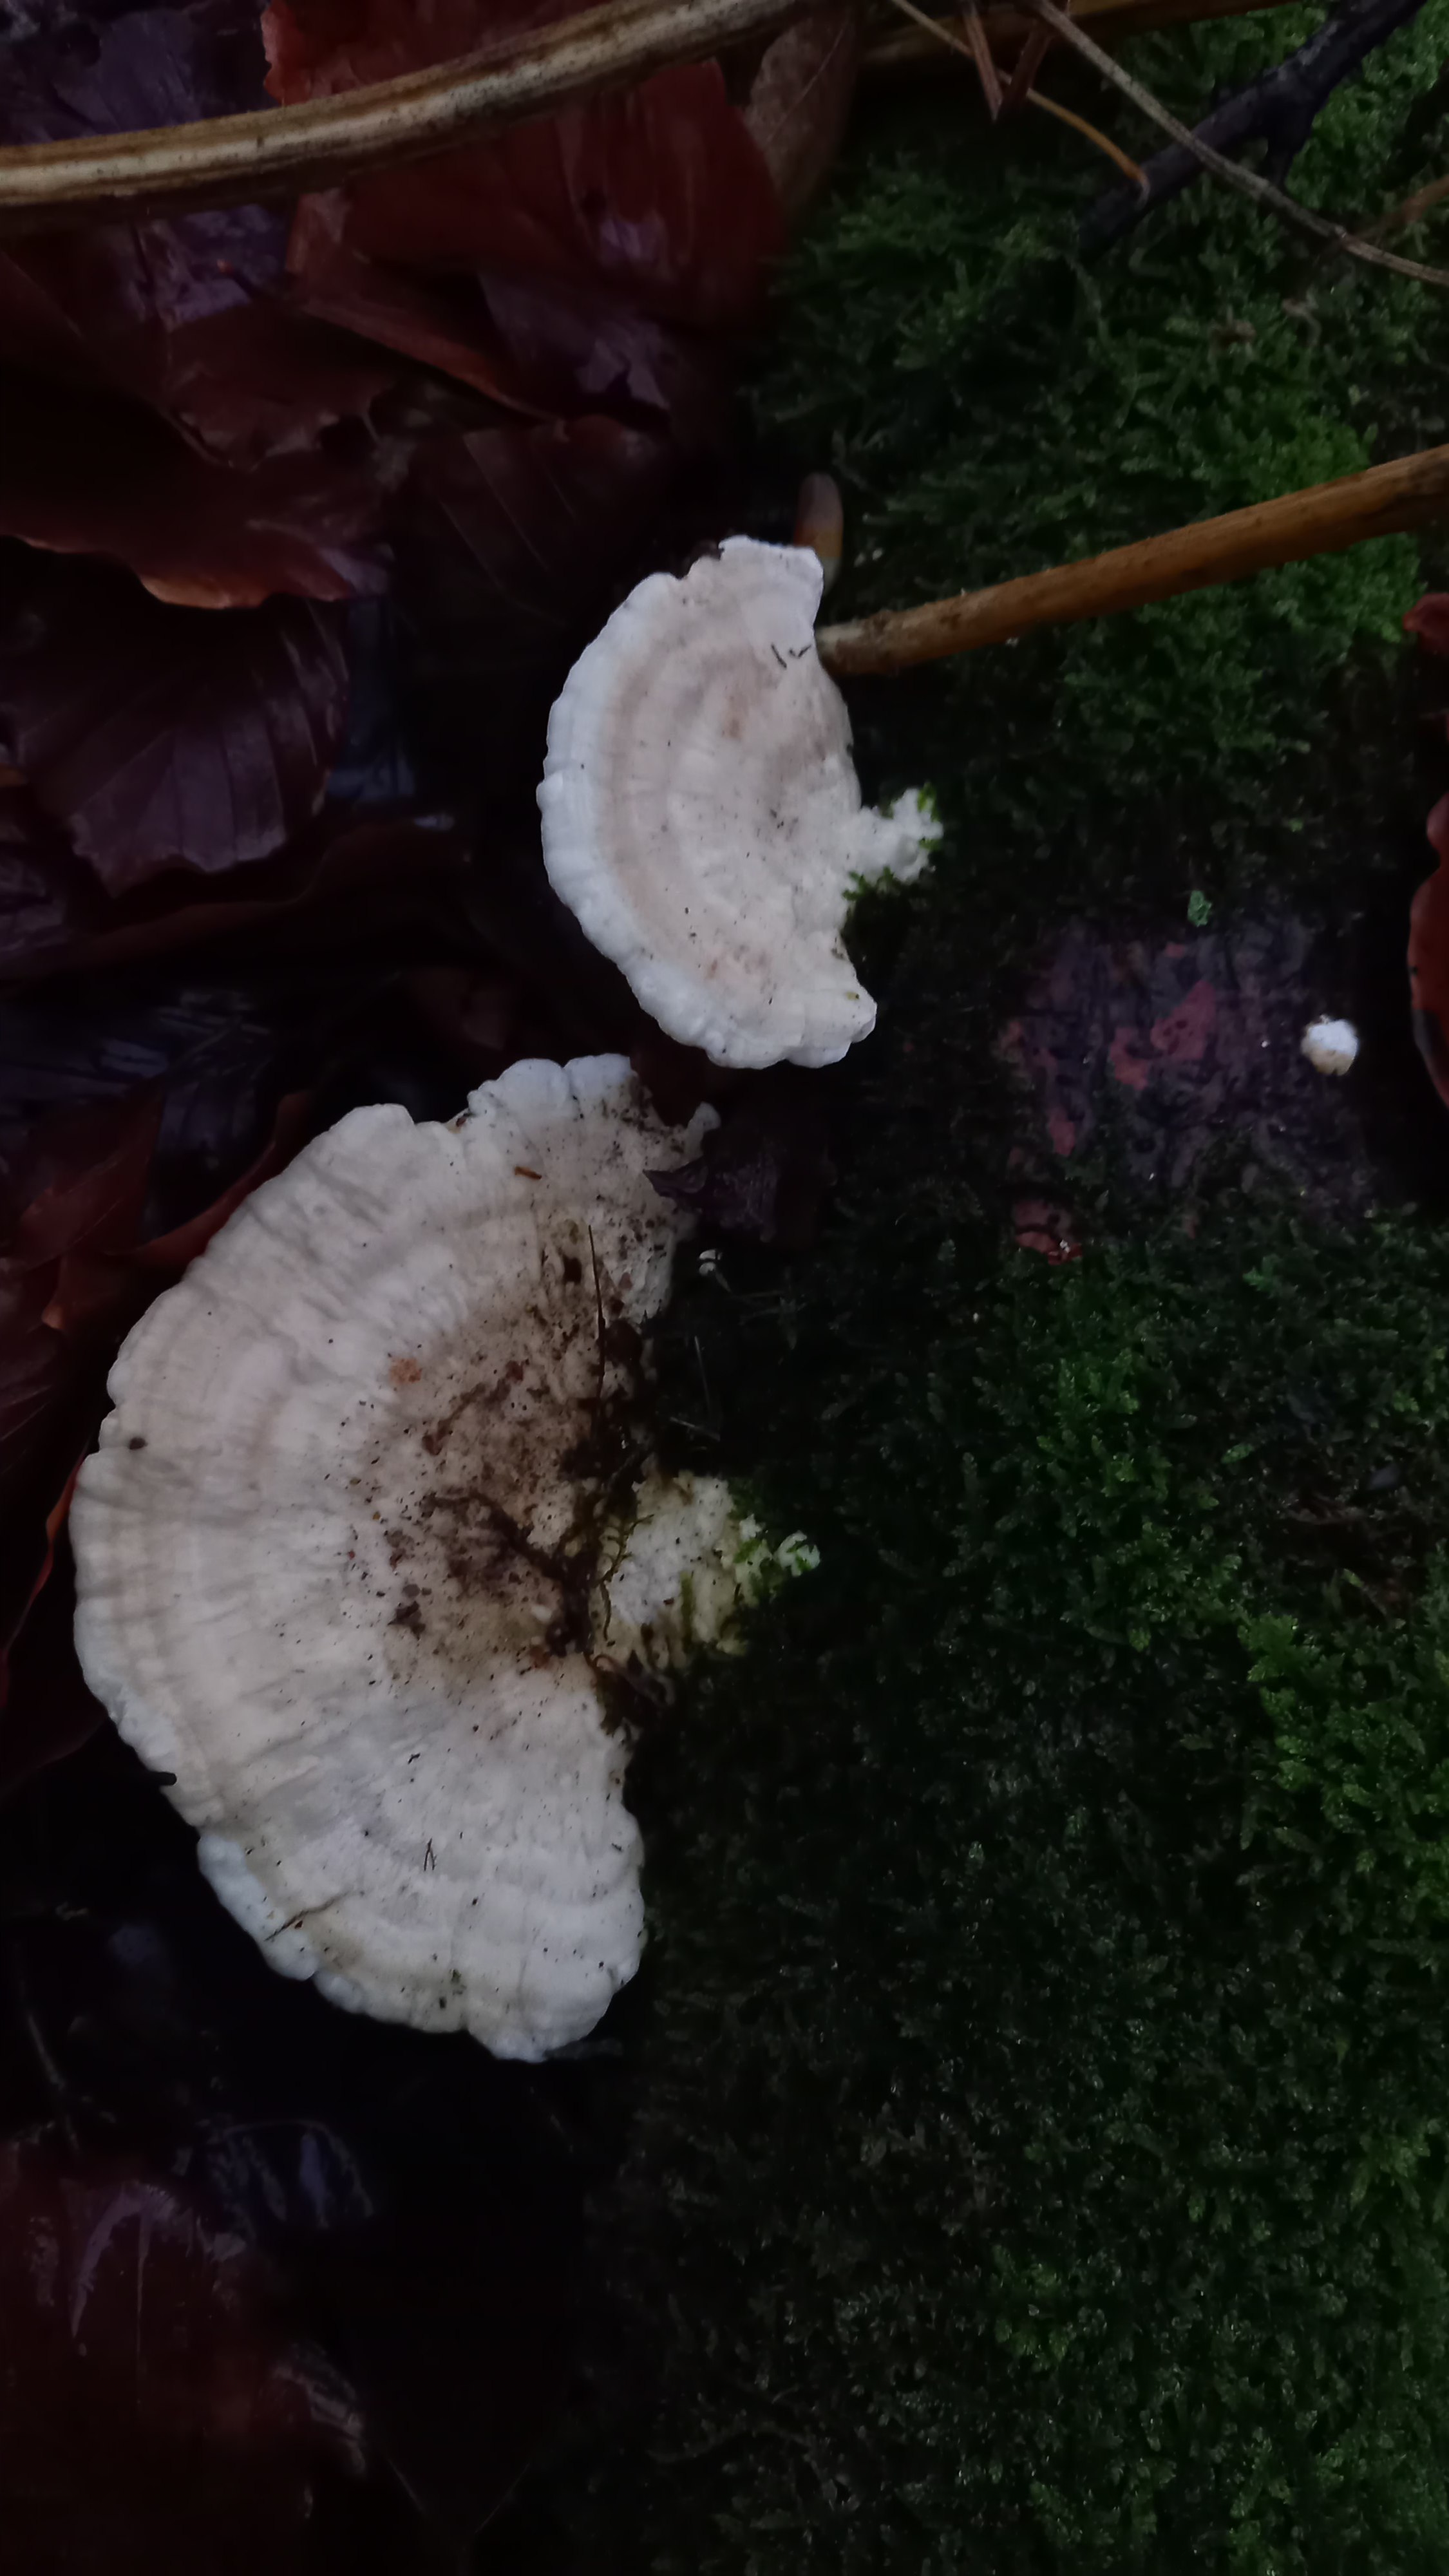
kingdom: Fungi
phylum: Basidiomycota
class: Agaricomycetes
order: Polyporales
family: Polyporaceae
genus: Trametes
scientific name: Trametes hirsuta
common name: håret læderporesvamp
